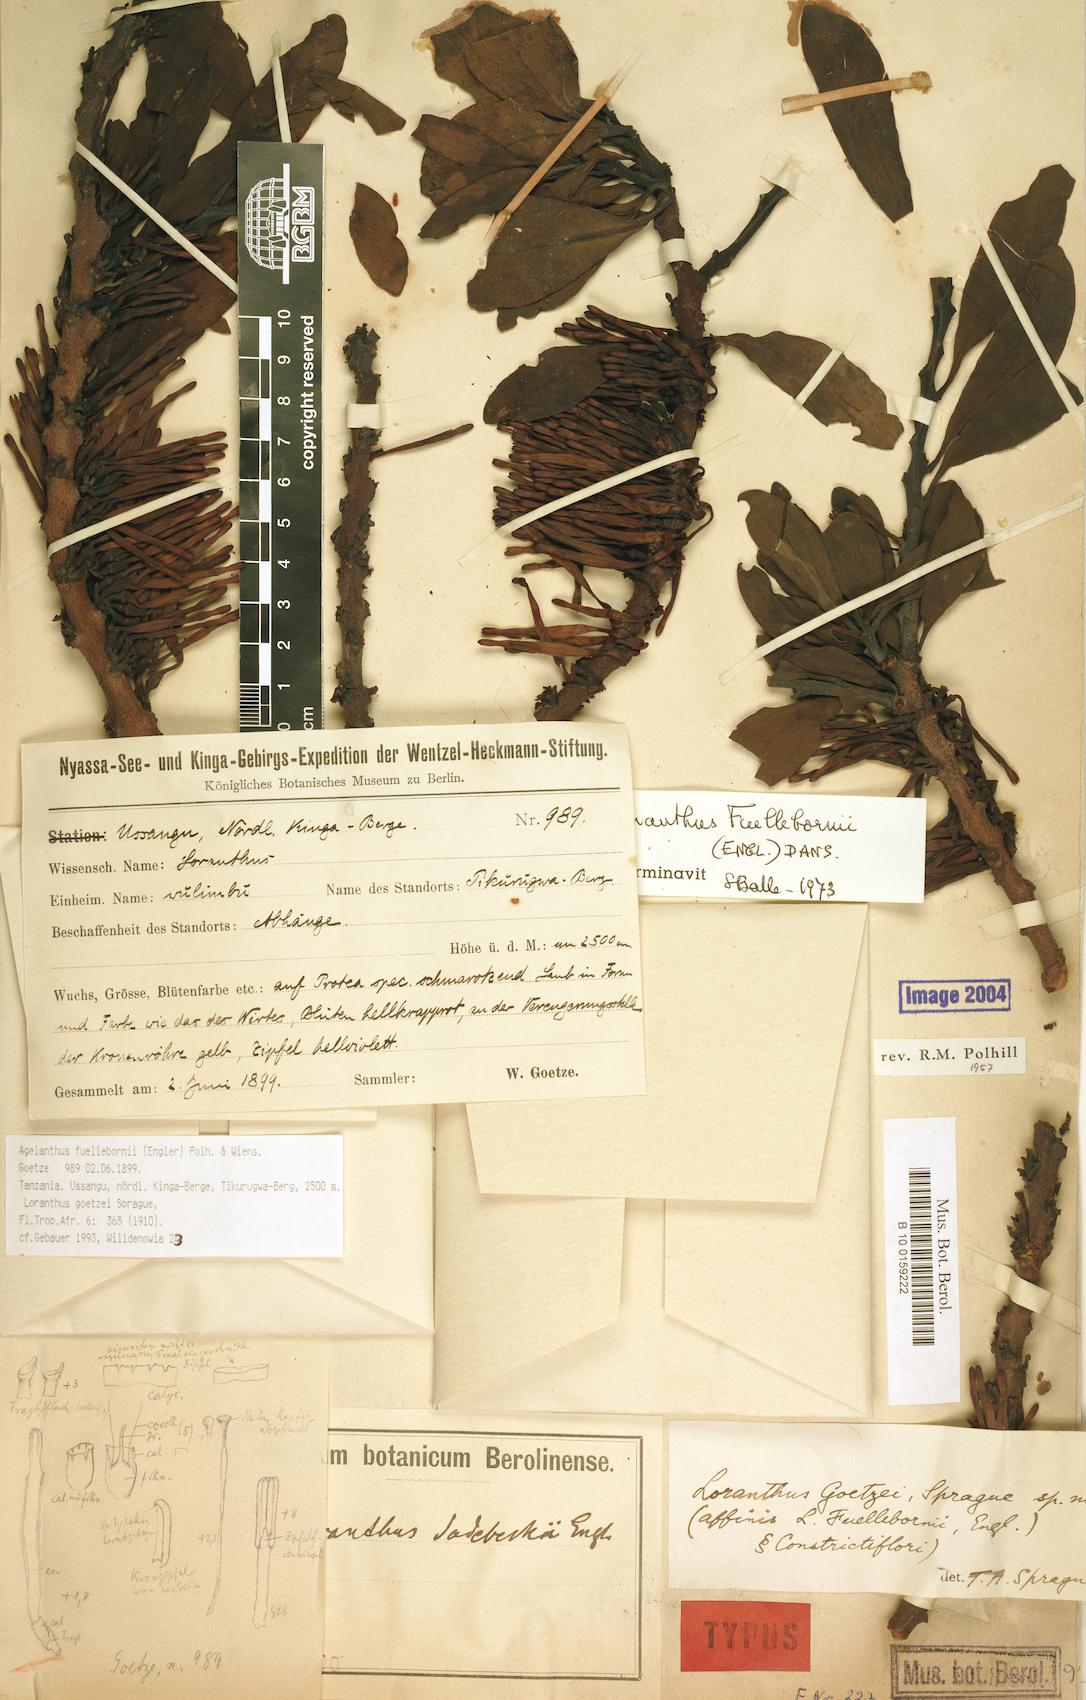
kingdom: Plantae
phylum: Tracheophyta
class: Magnoliopsida
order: Santalales
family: Loranthaceae
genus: Agelanthus
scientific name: Agelanthus fuellebornii
